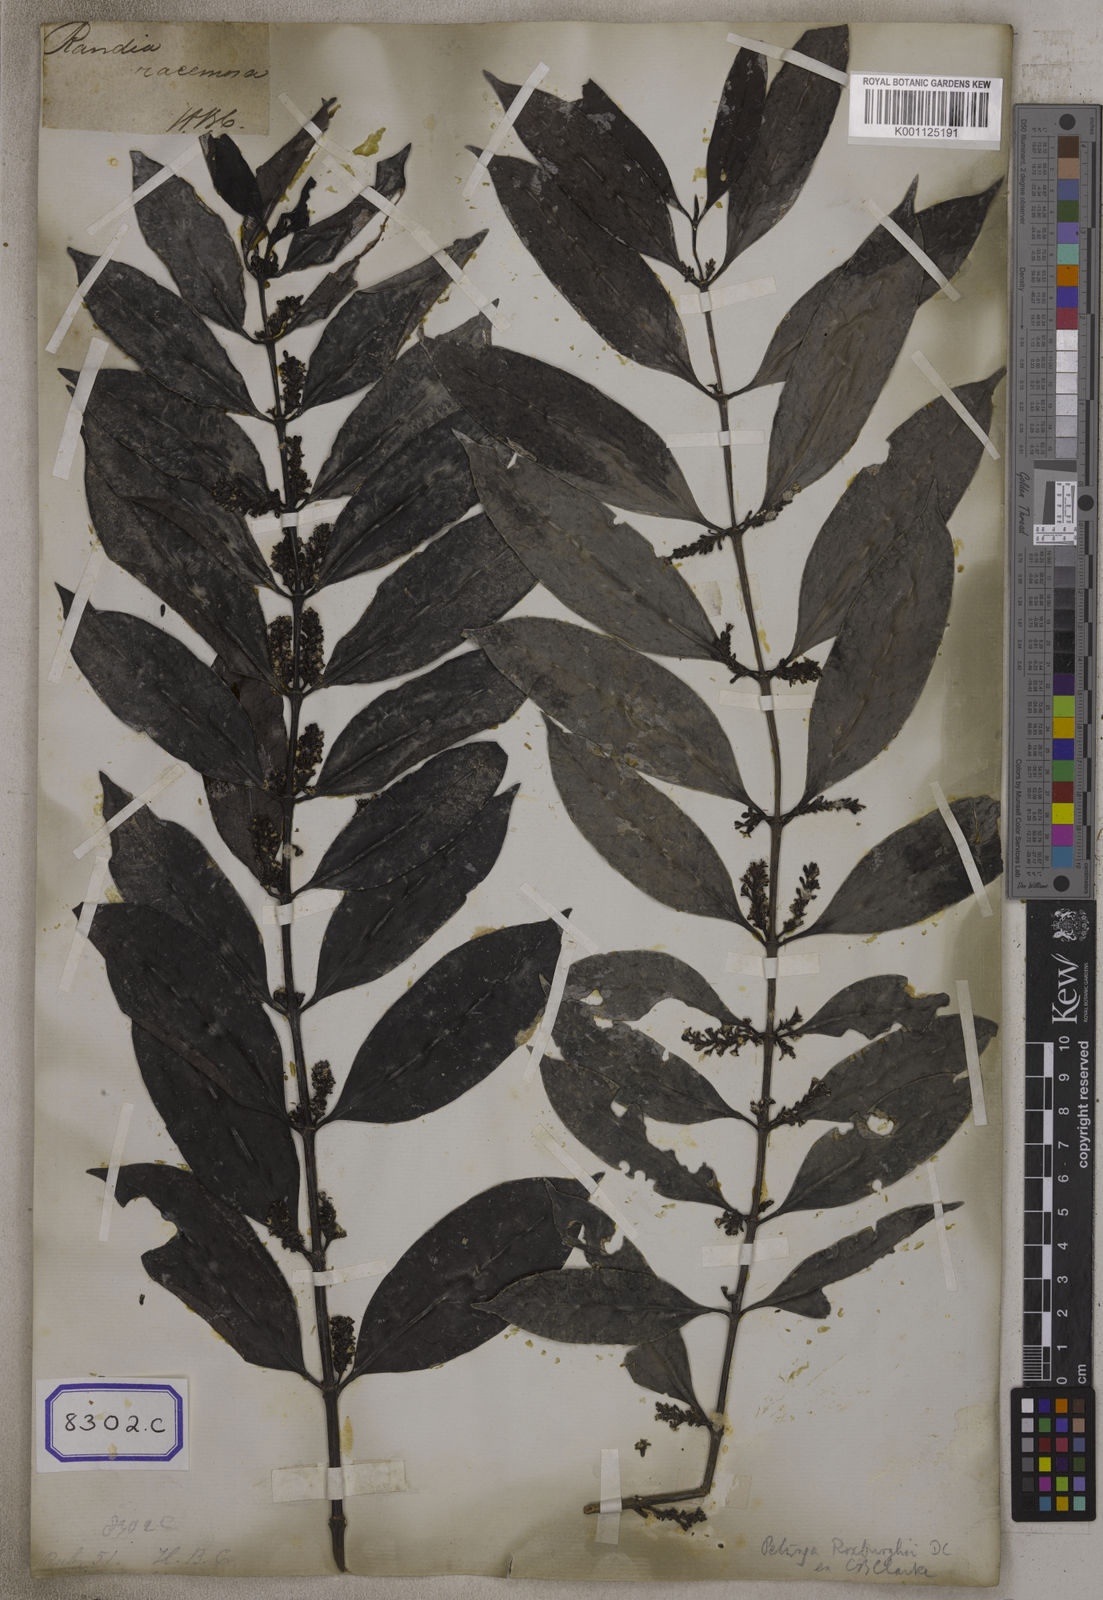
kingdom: Plantae
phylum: Tracheophyta
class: Magnoliopsida
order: Gentianales
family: Rubiaceae
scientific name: Rubiaceae
